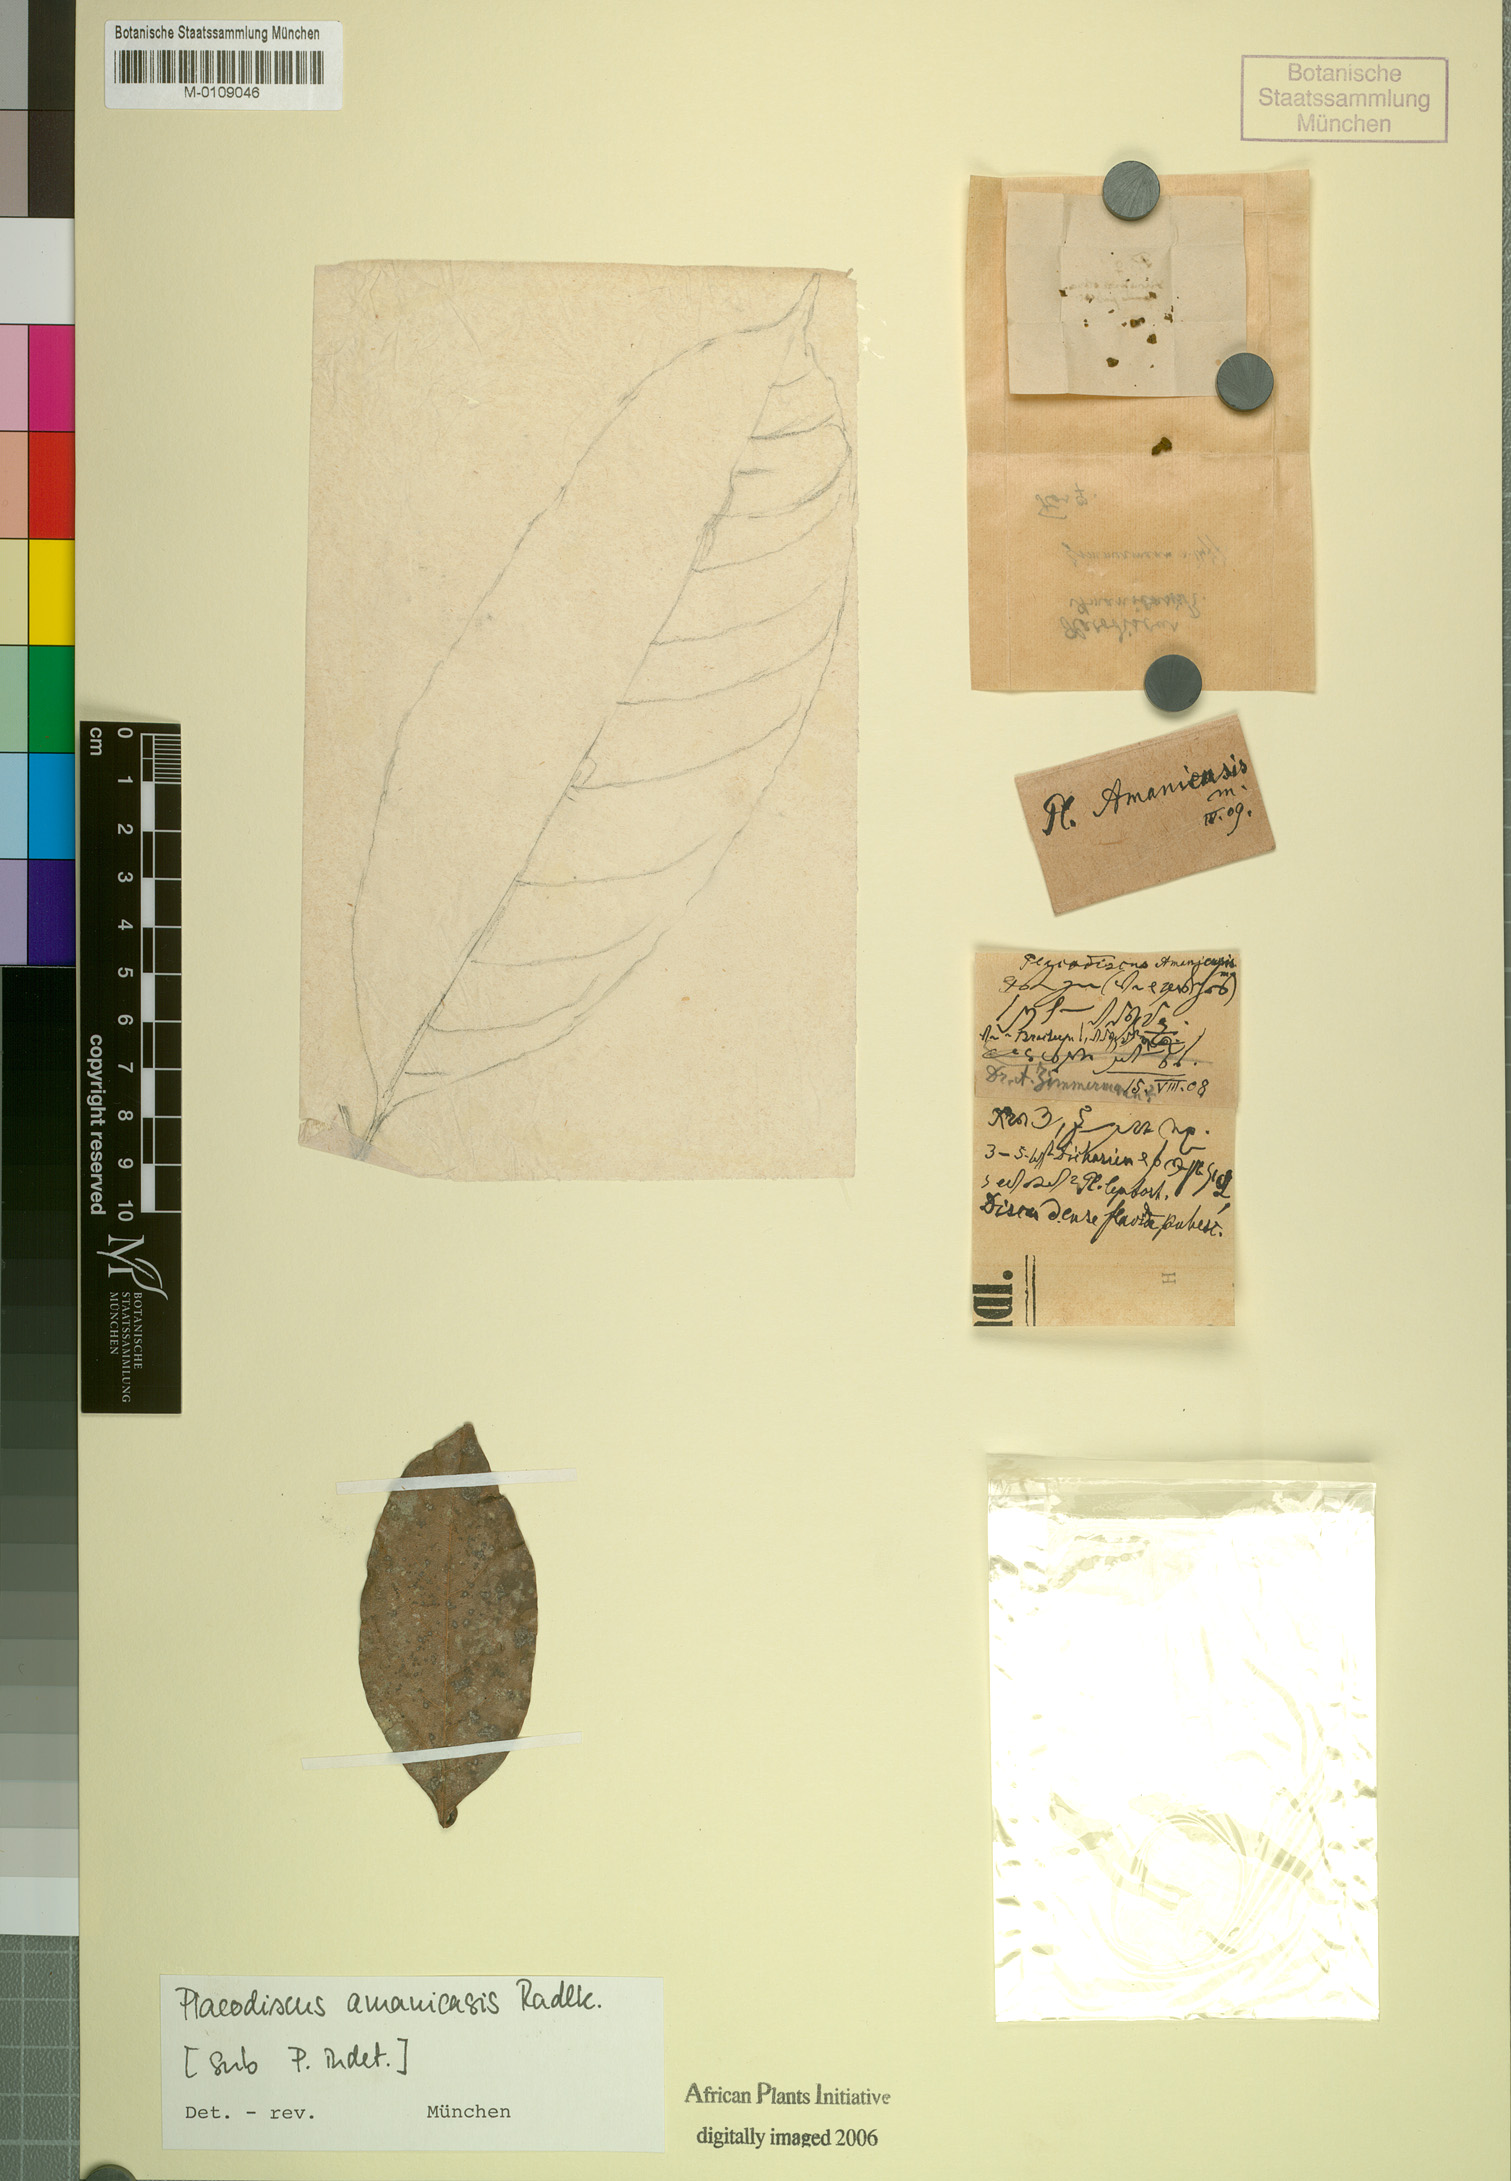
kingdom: Plantae
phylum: Tracheophyta
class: Magnoliopsida
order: Sapindales
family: Sapindaceae
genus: Placodiscus
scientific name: Placodiscus amaniensis
